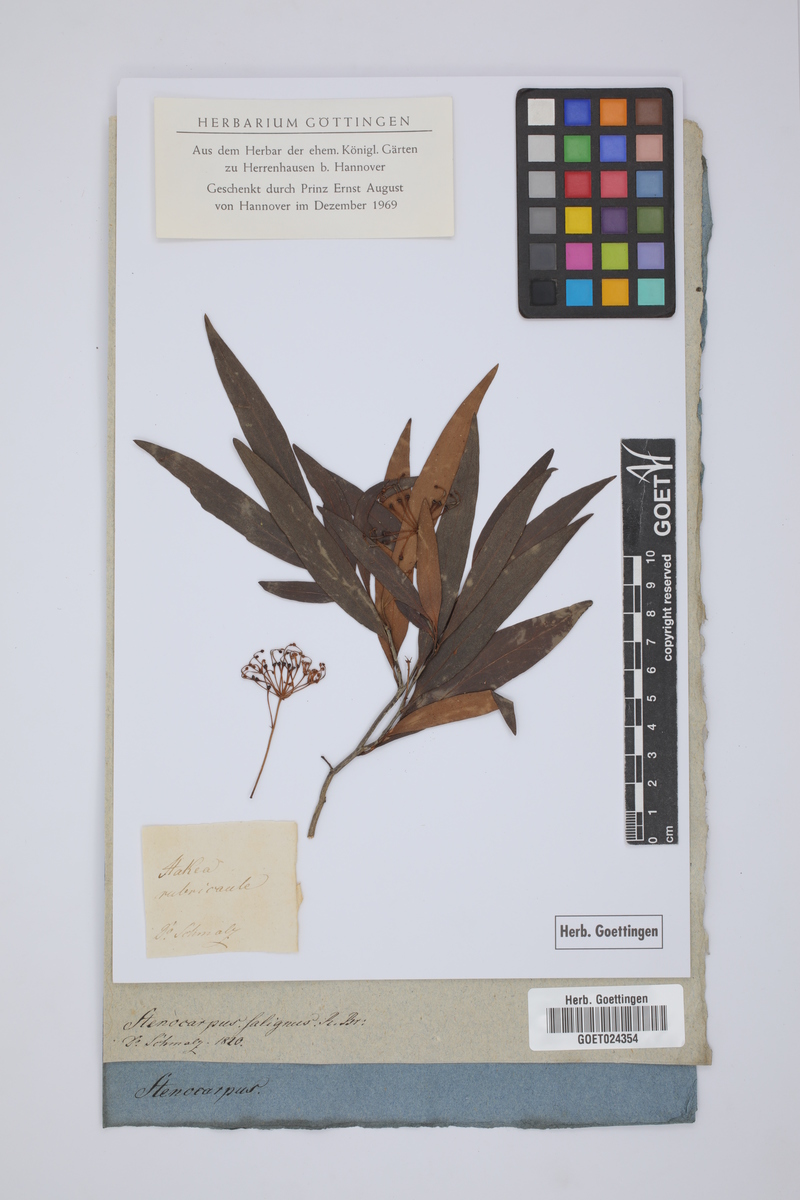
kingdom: Plantae
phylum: Tracheophyta
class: Magnoliopsida
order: Proteales
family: Proteaceae
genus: Stenocarpus
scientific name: Stenocarpus salignus
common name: Red silky-oak
